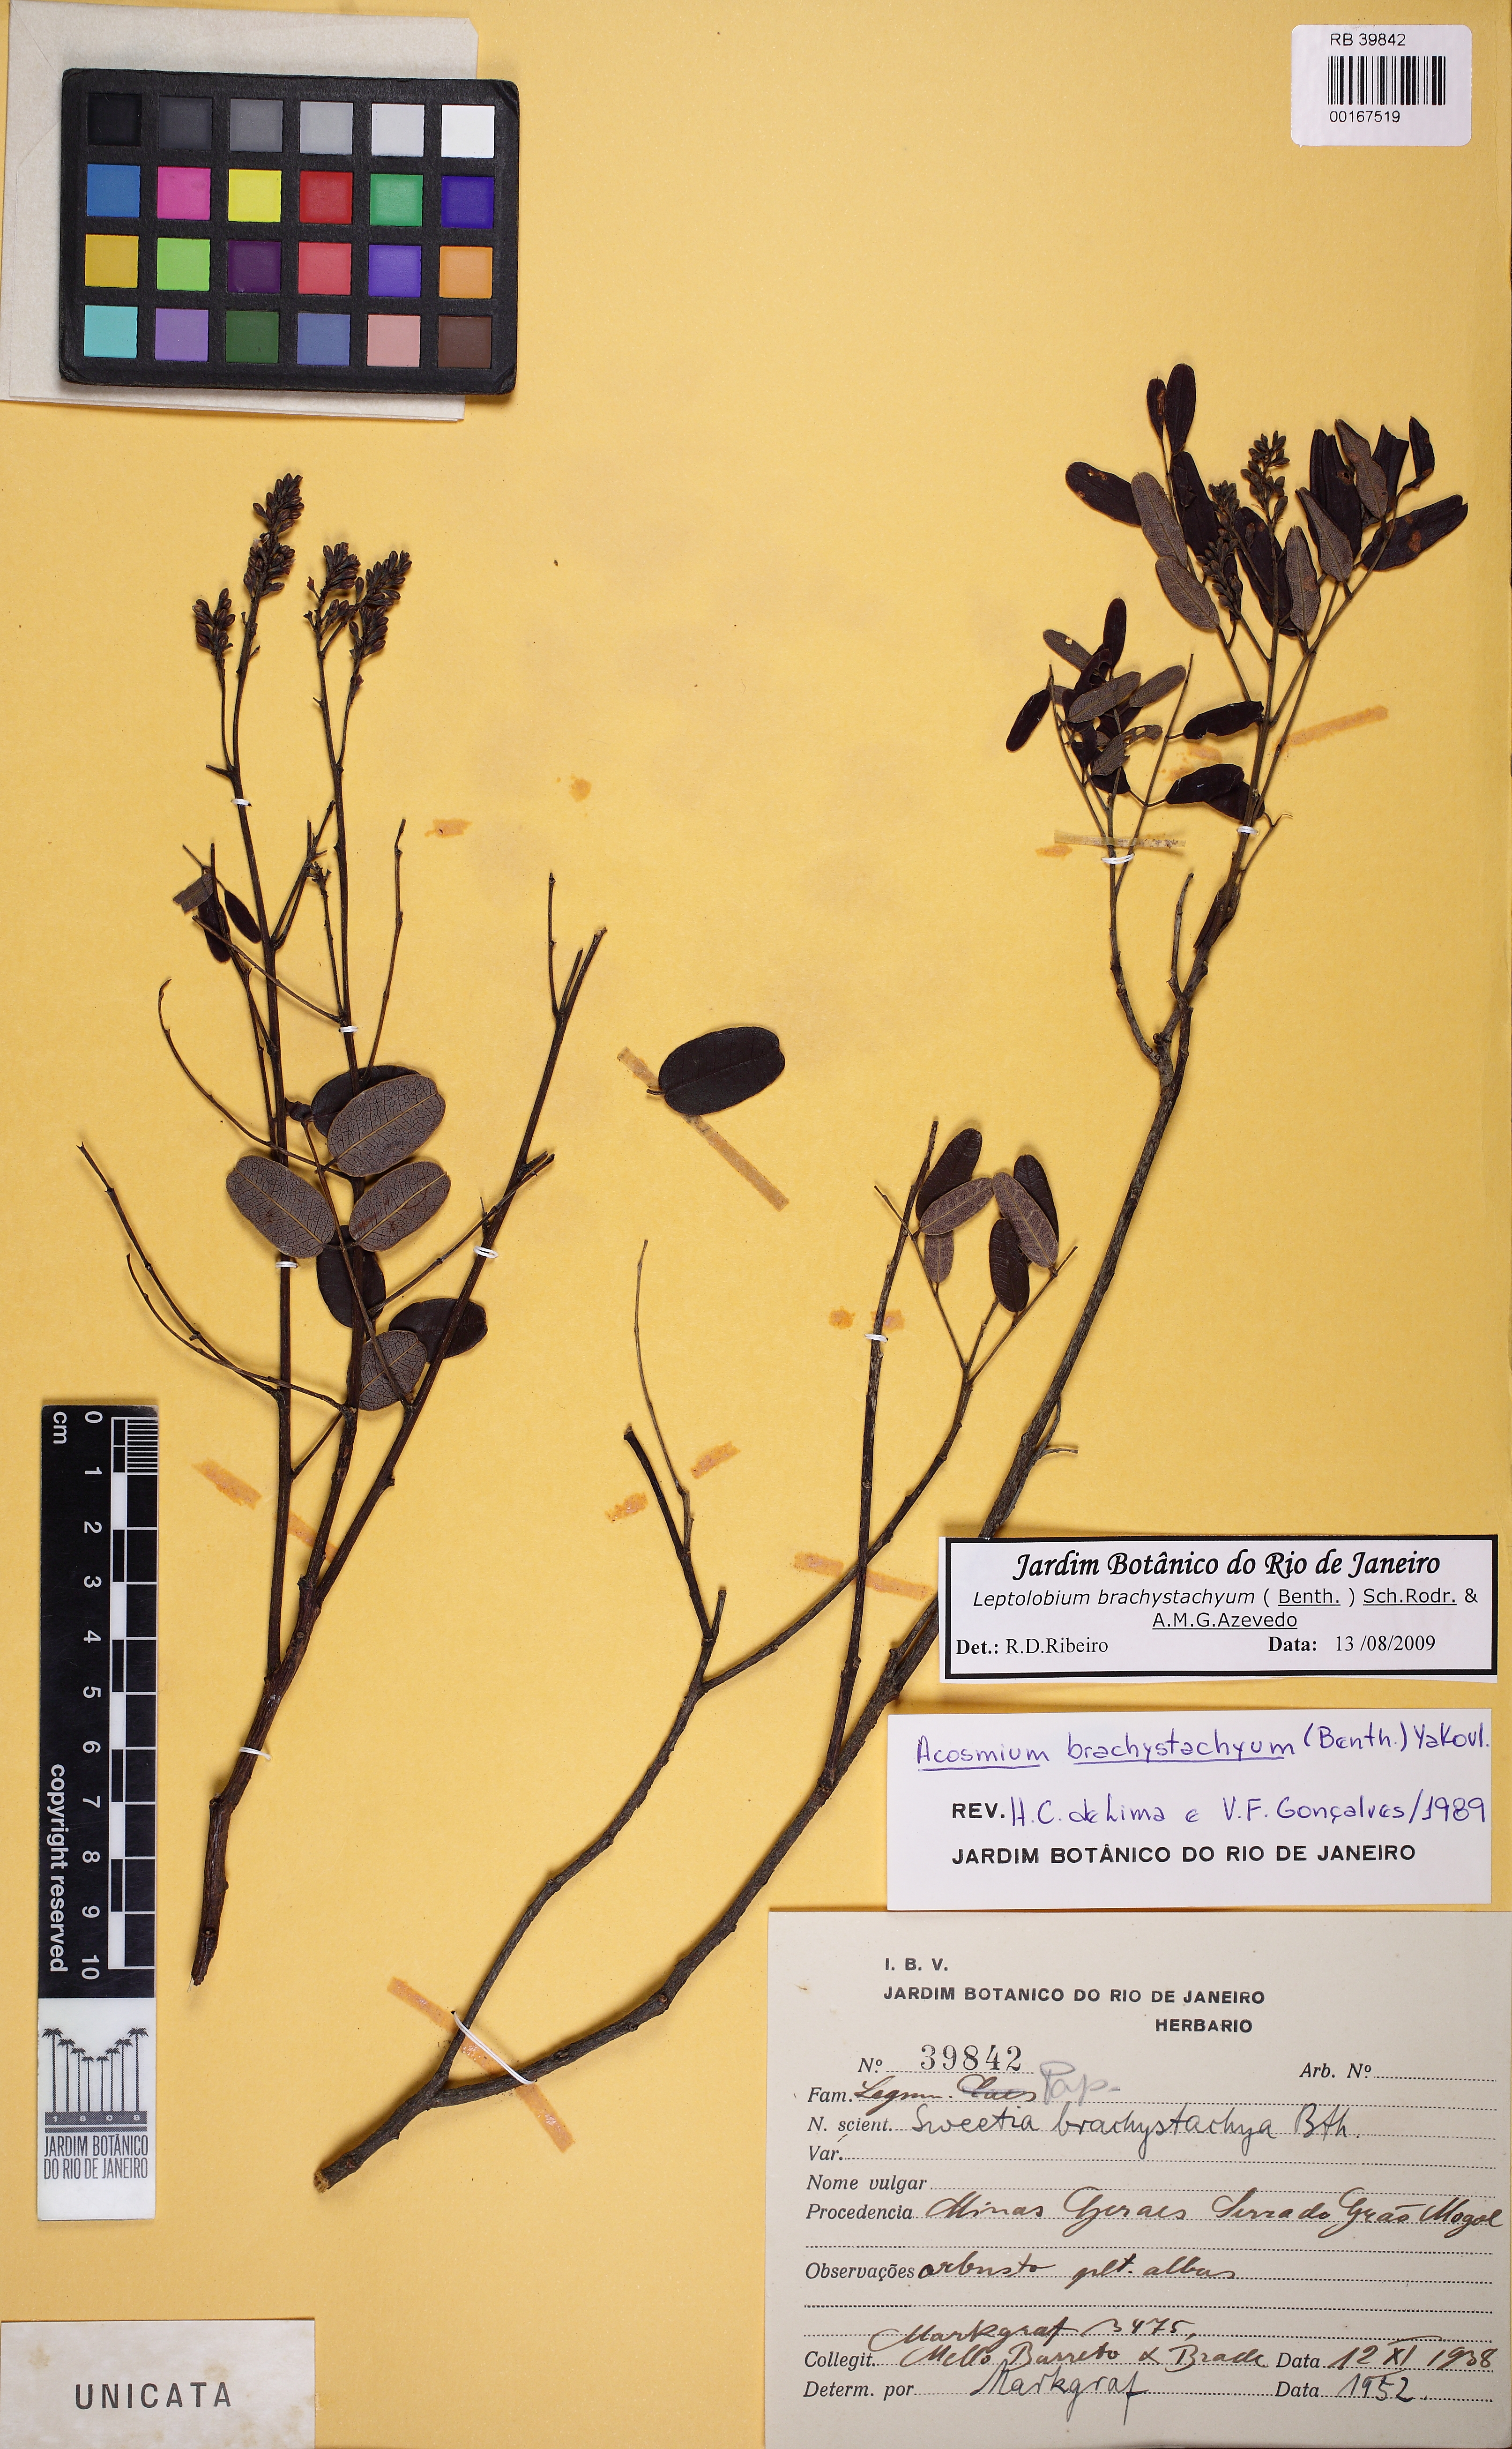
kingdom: Plantae
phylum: Tracheophyta
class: Magnoliopsida
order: Fabales
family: Fabaceae
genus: Leptolobium
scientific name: Leptolobium brachystachyum
